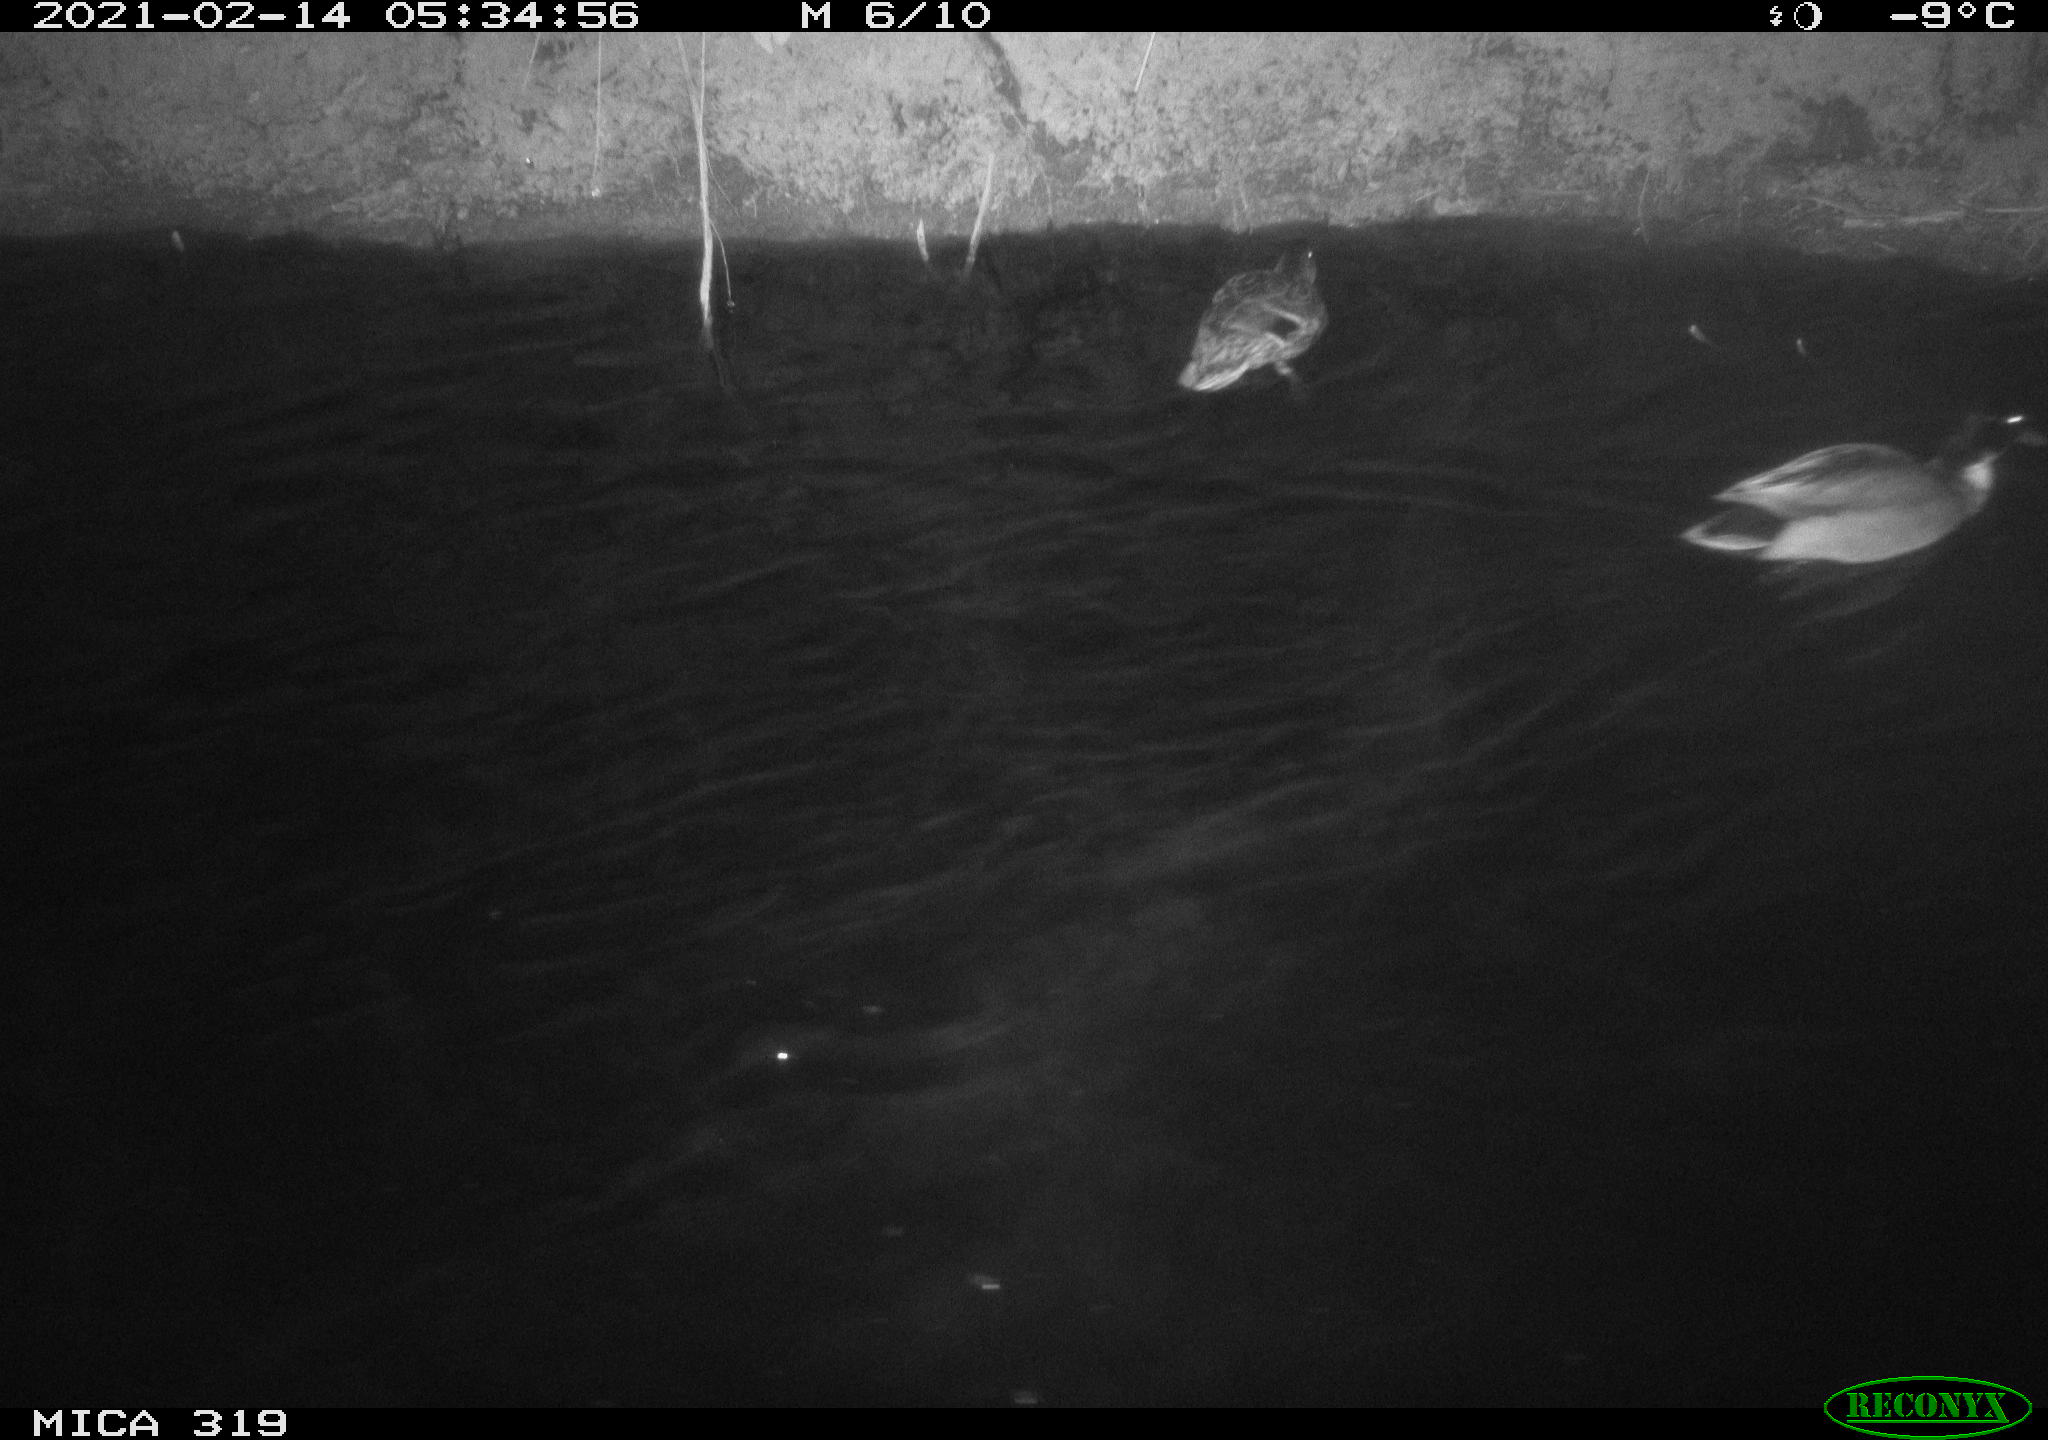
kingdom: Animalia
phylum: Chordata
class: Aves
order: Anseriformes
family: Anatidae
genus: Anas
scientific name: Anas platyrhynchos
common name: Mallard
